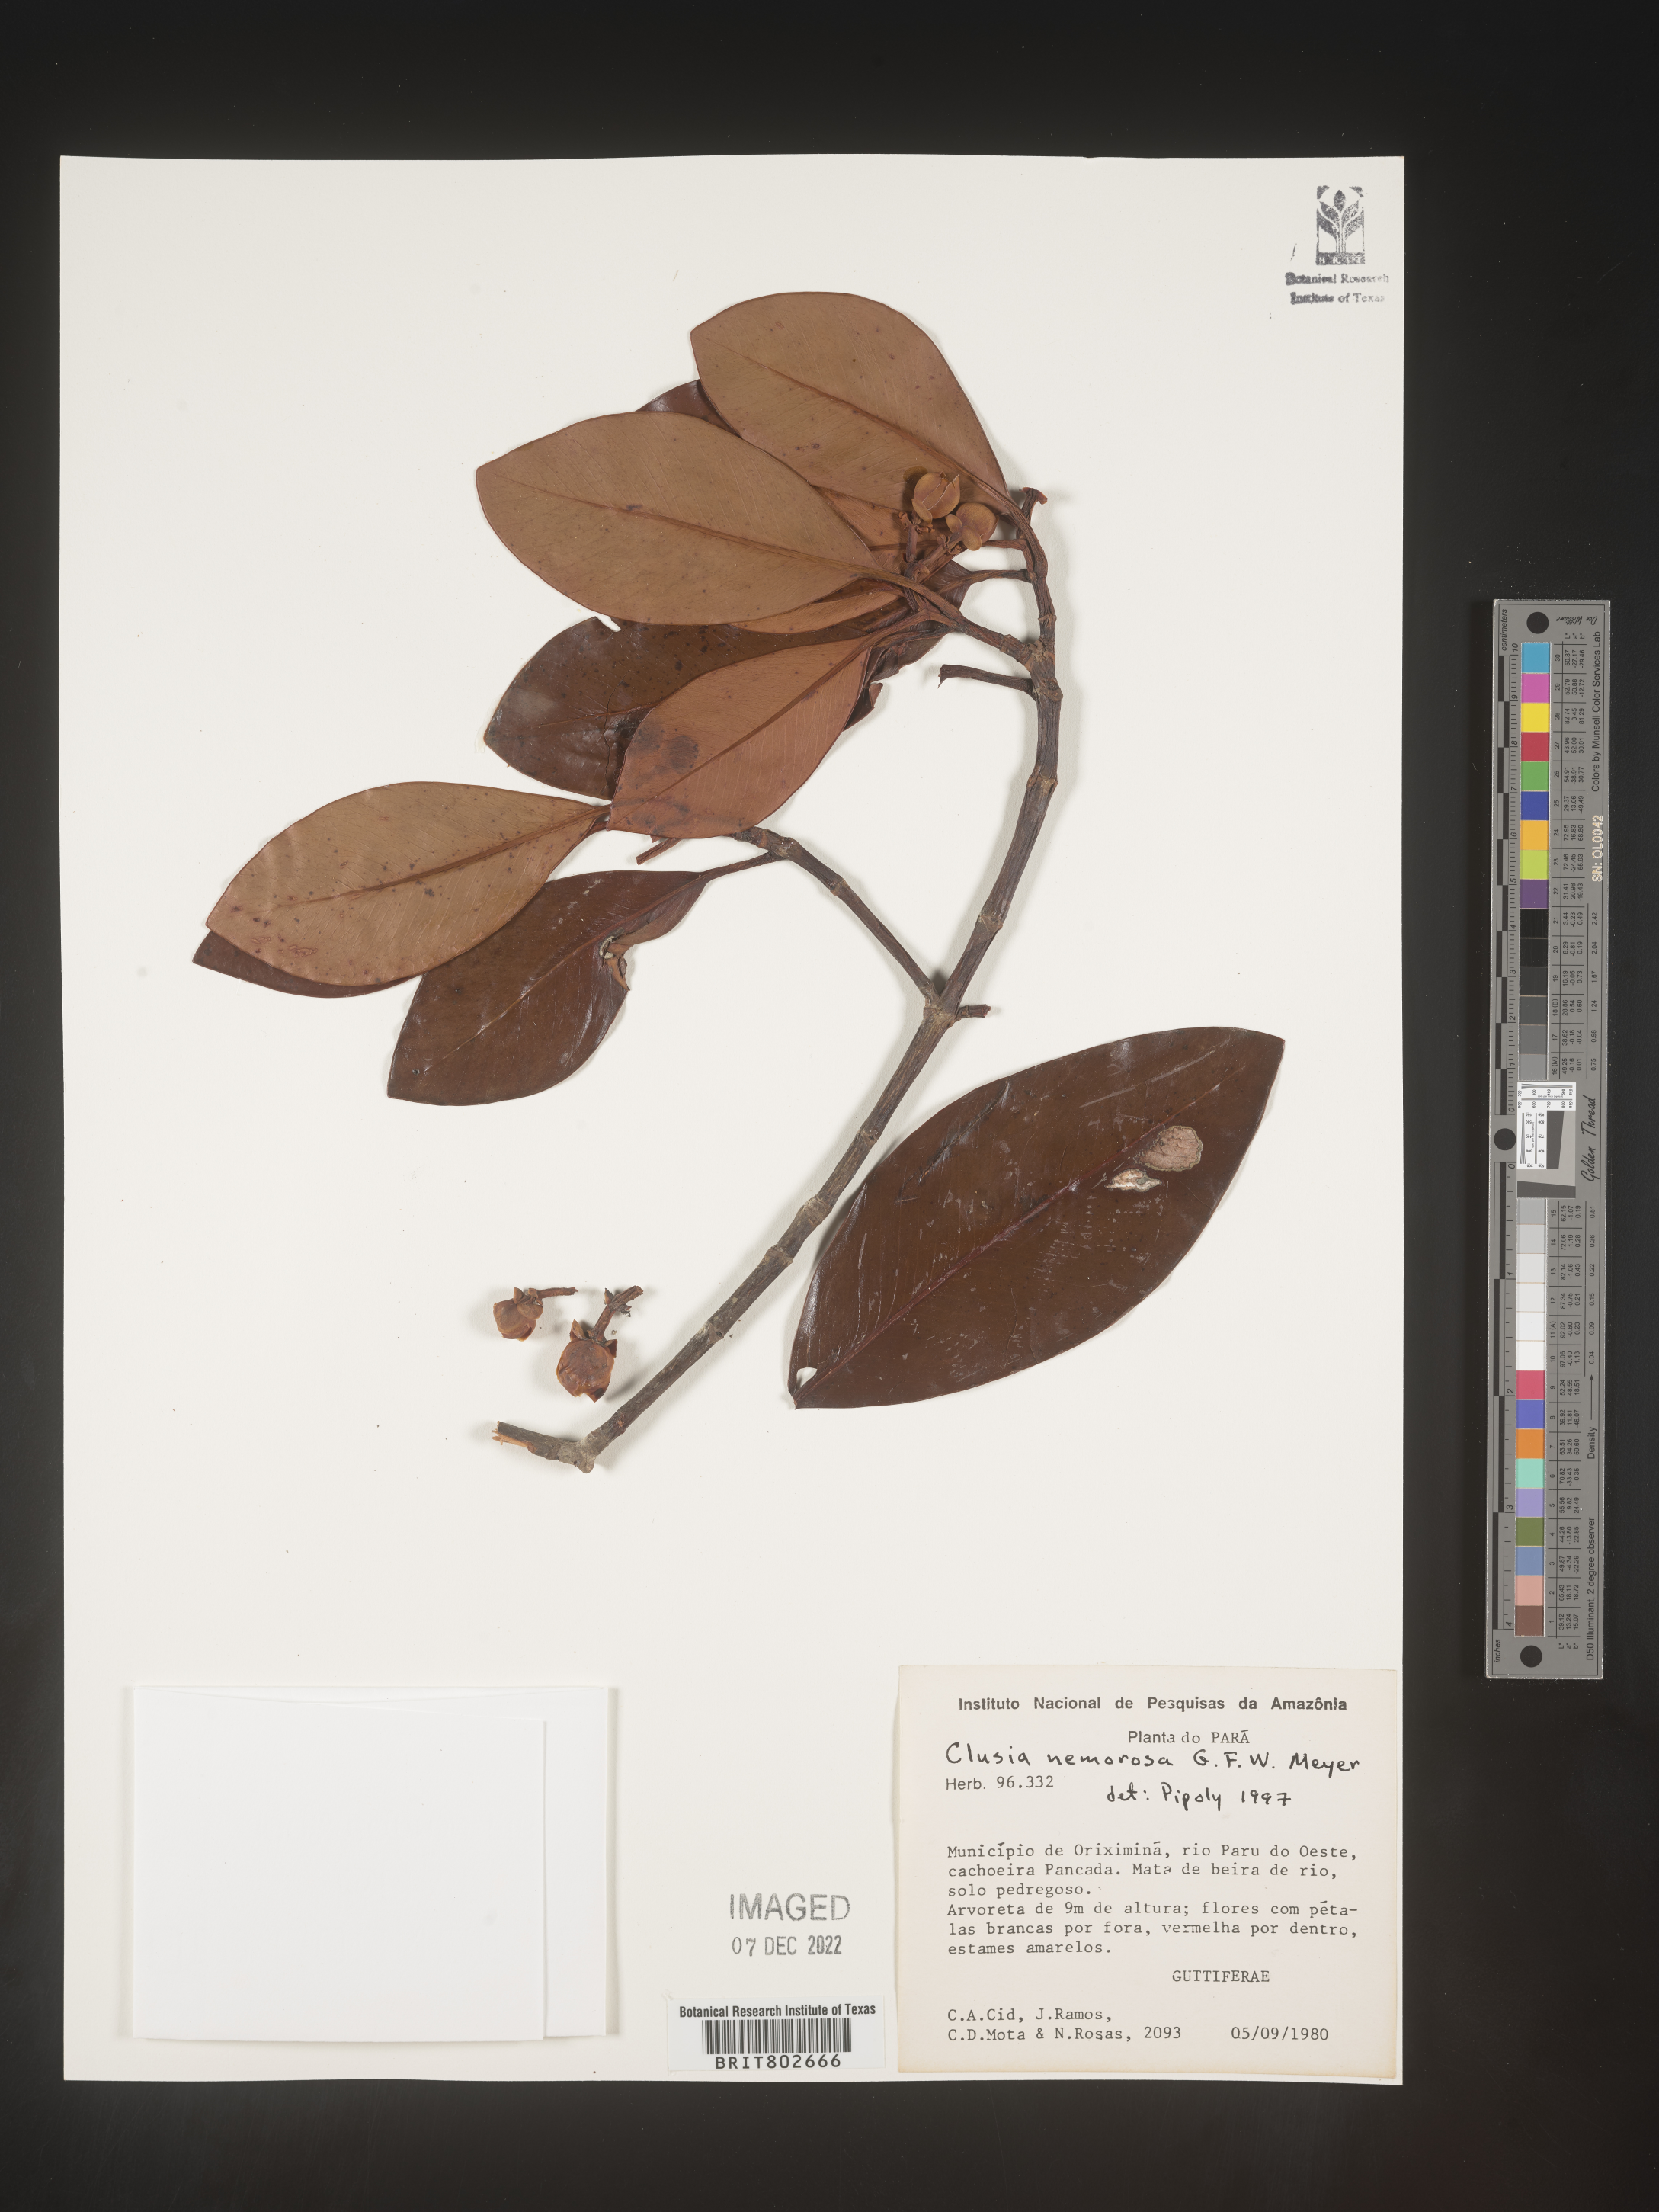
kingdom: Plantae
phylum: Tracheophyta
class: Magnoliopsida
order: Malpighiales
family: Clusiaceae
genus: Clusia
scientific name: Clusia nemorosa
